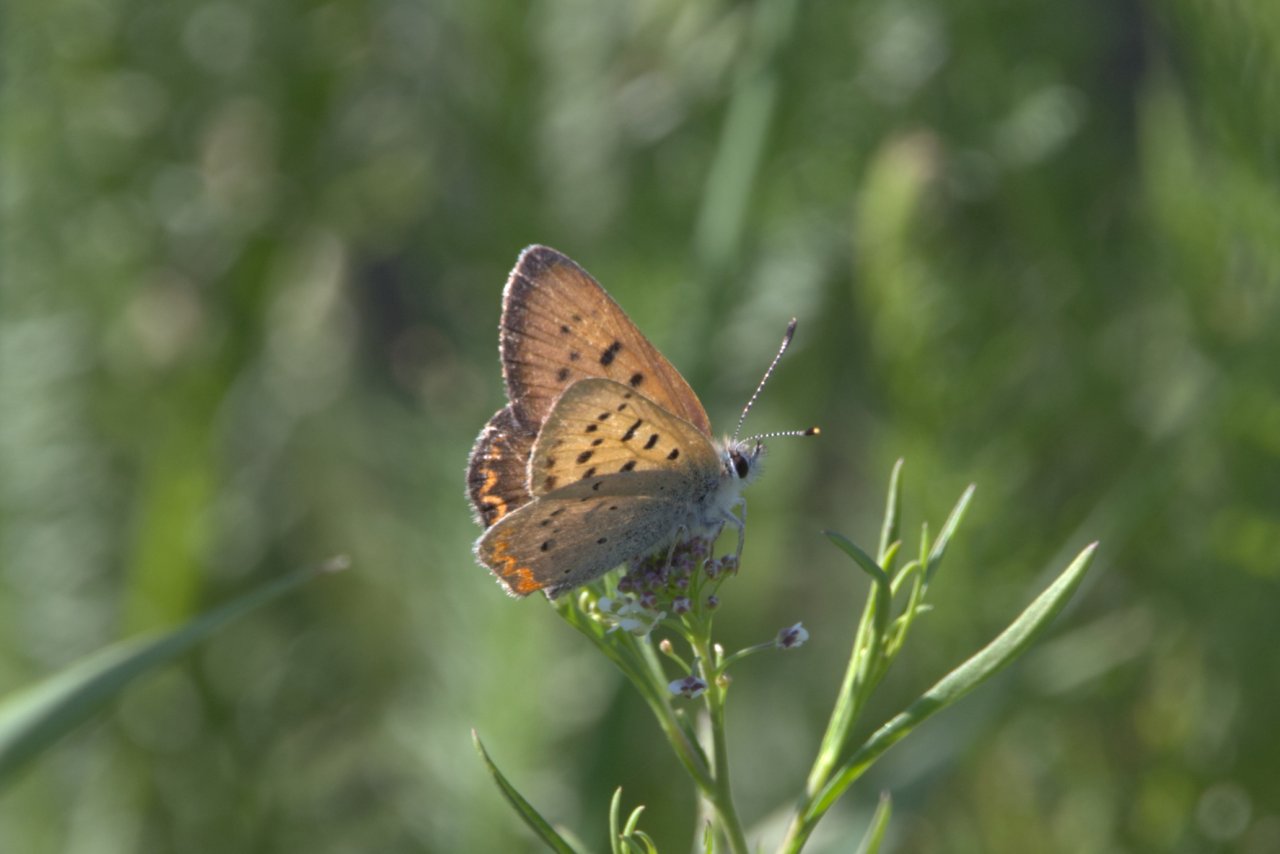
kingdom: Animalia
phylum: Arthropoda
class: Insecta
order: Lepidoptera
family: Sesiidae
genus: Sesia
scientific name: Sesia Lycaena helloides
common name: Purplish Copper
